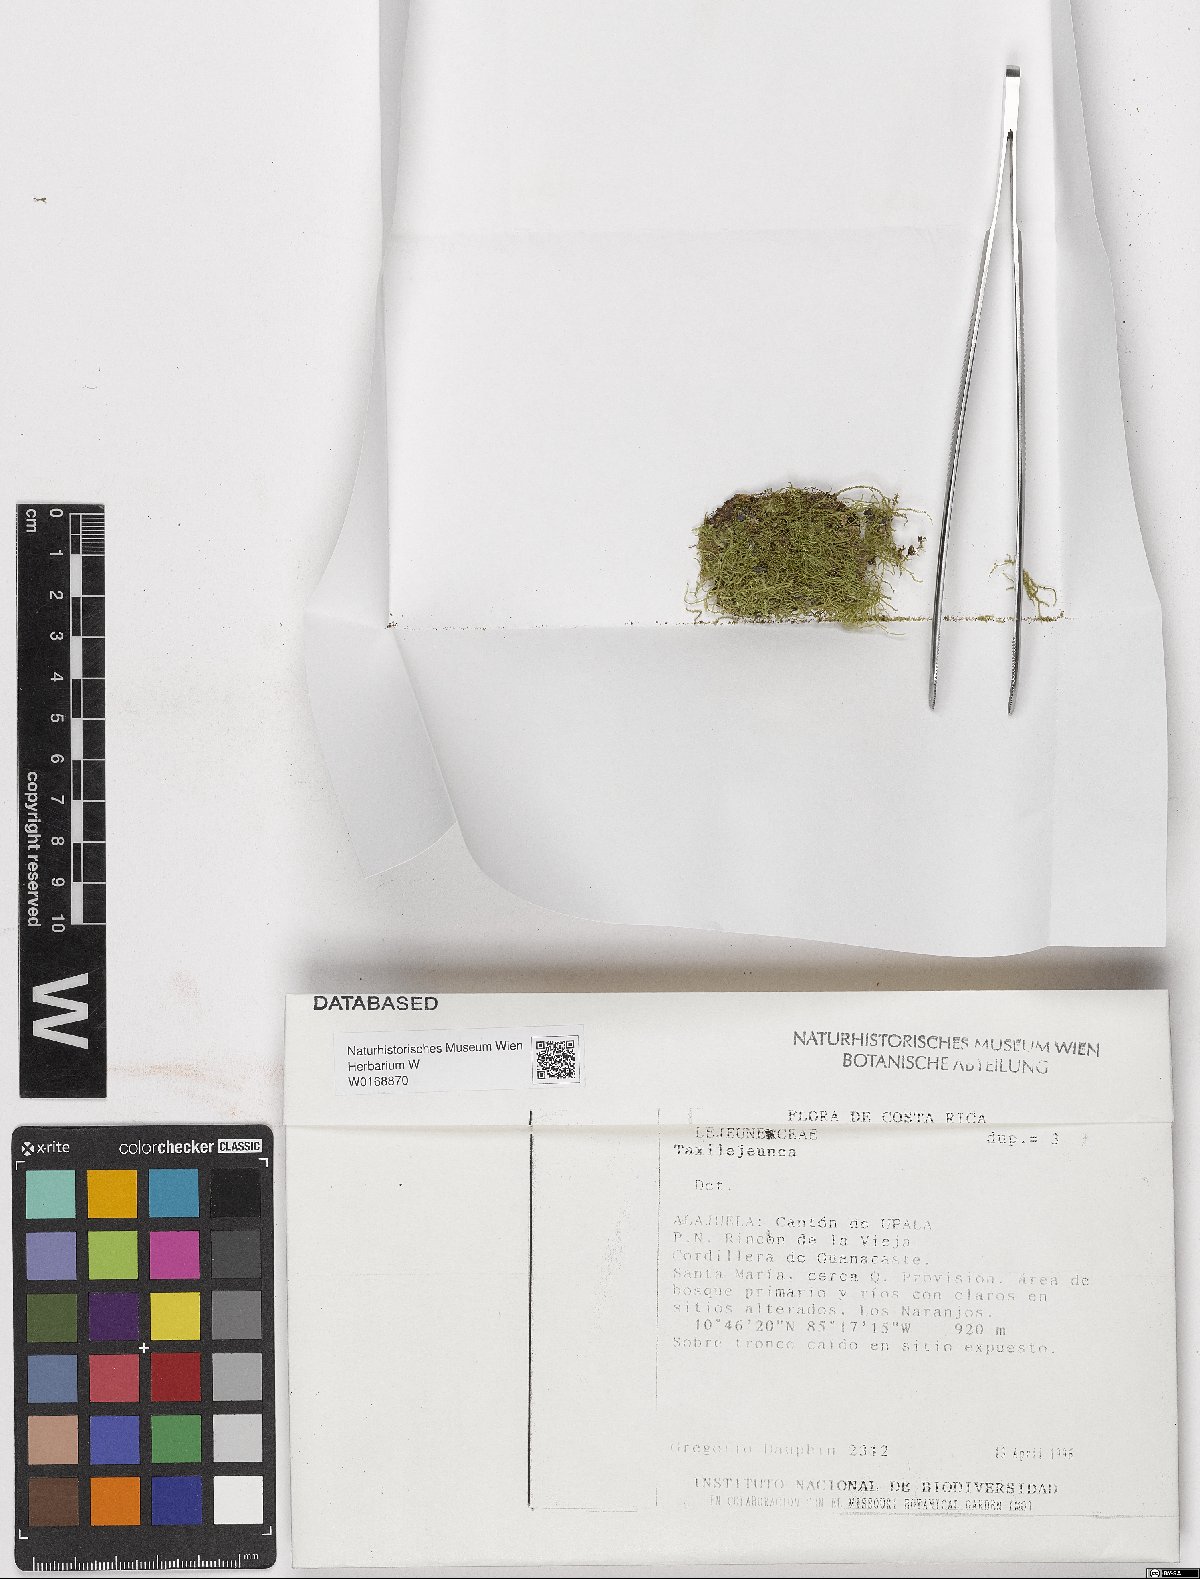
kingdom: Plantae
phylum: Marchantiophyta
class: Jungermanniopsida
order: Porellales
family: Lejeuneaceae
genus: Taxilejeunea
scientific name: Taxilejeunea
